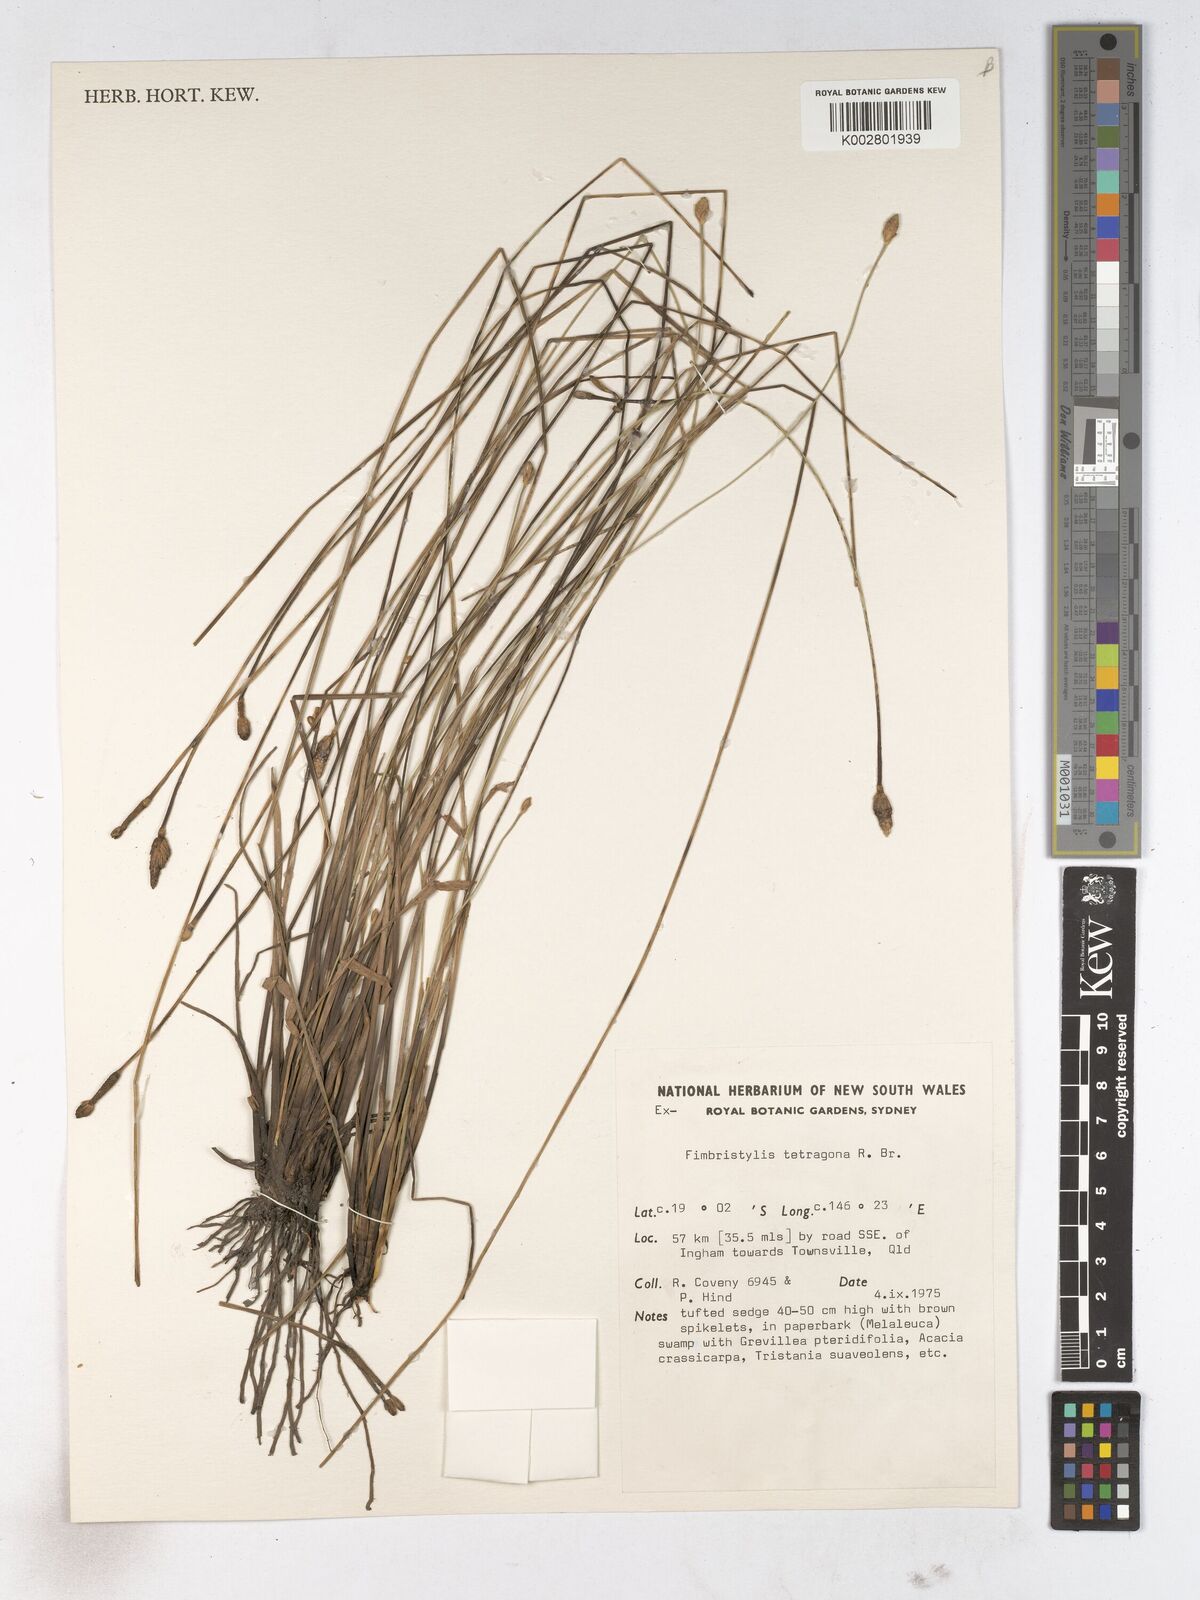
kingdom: Plantae
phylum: Tracheophyta
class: Liliopsida
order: Poales
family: Cyperaceae
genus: Fimbristylis
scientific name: Fimbristylis tetragona
